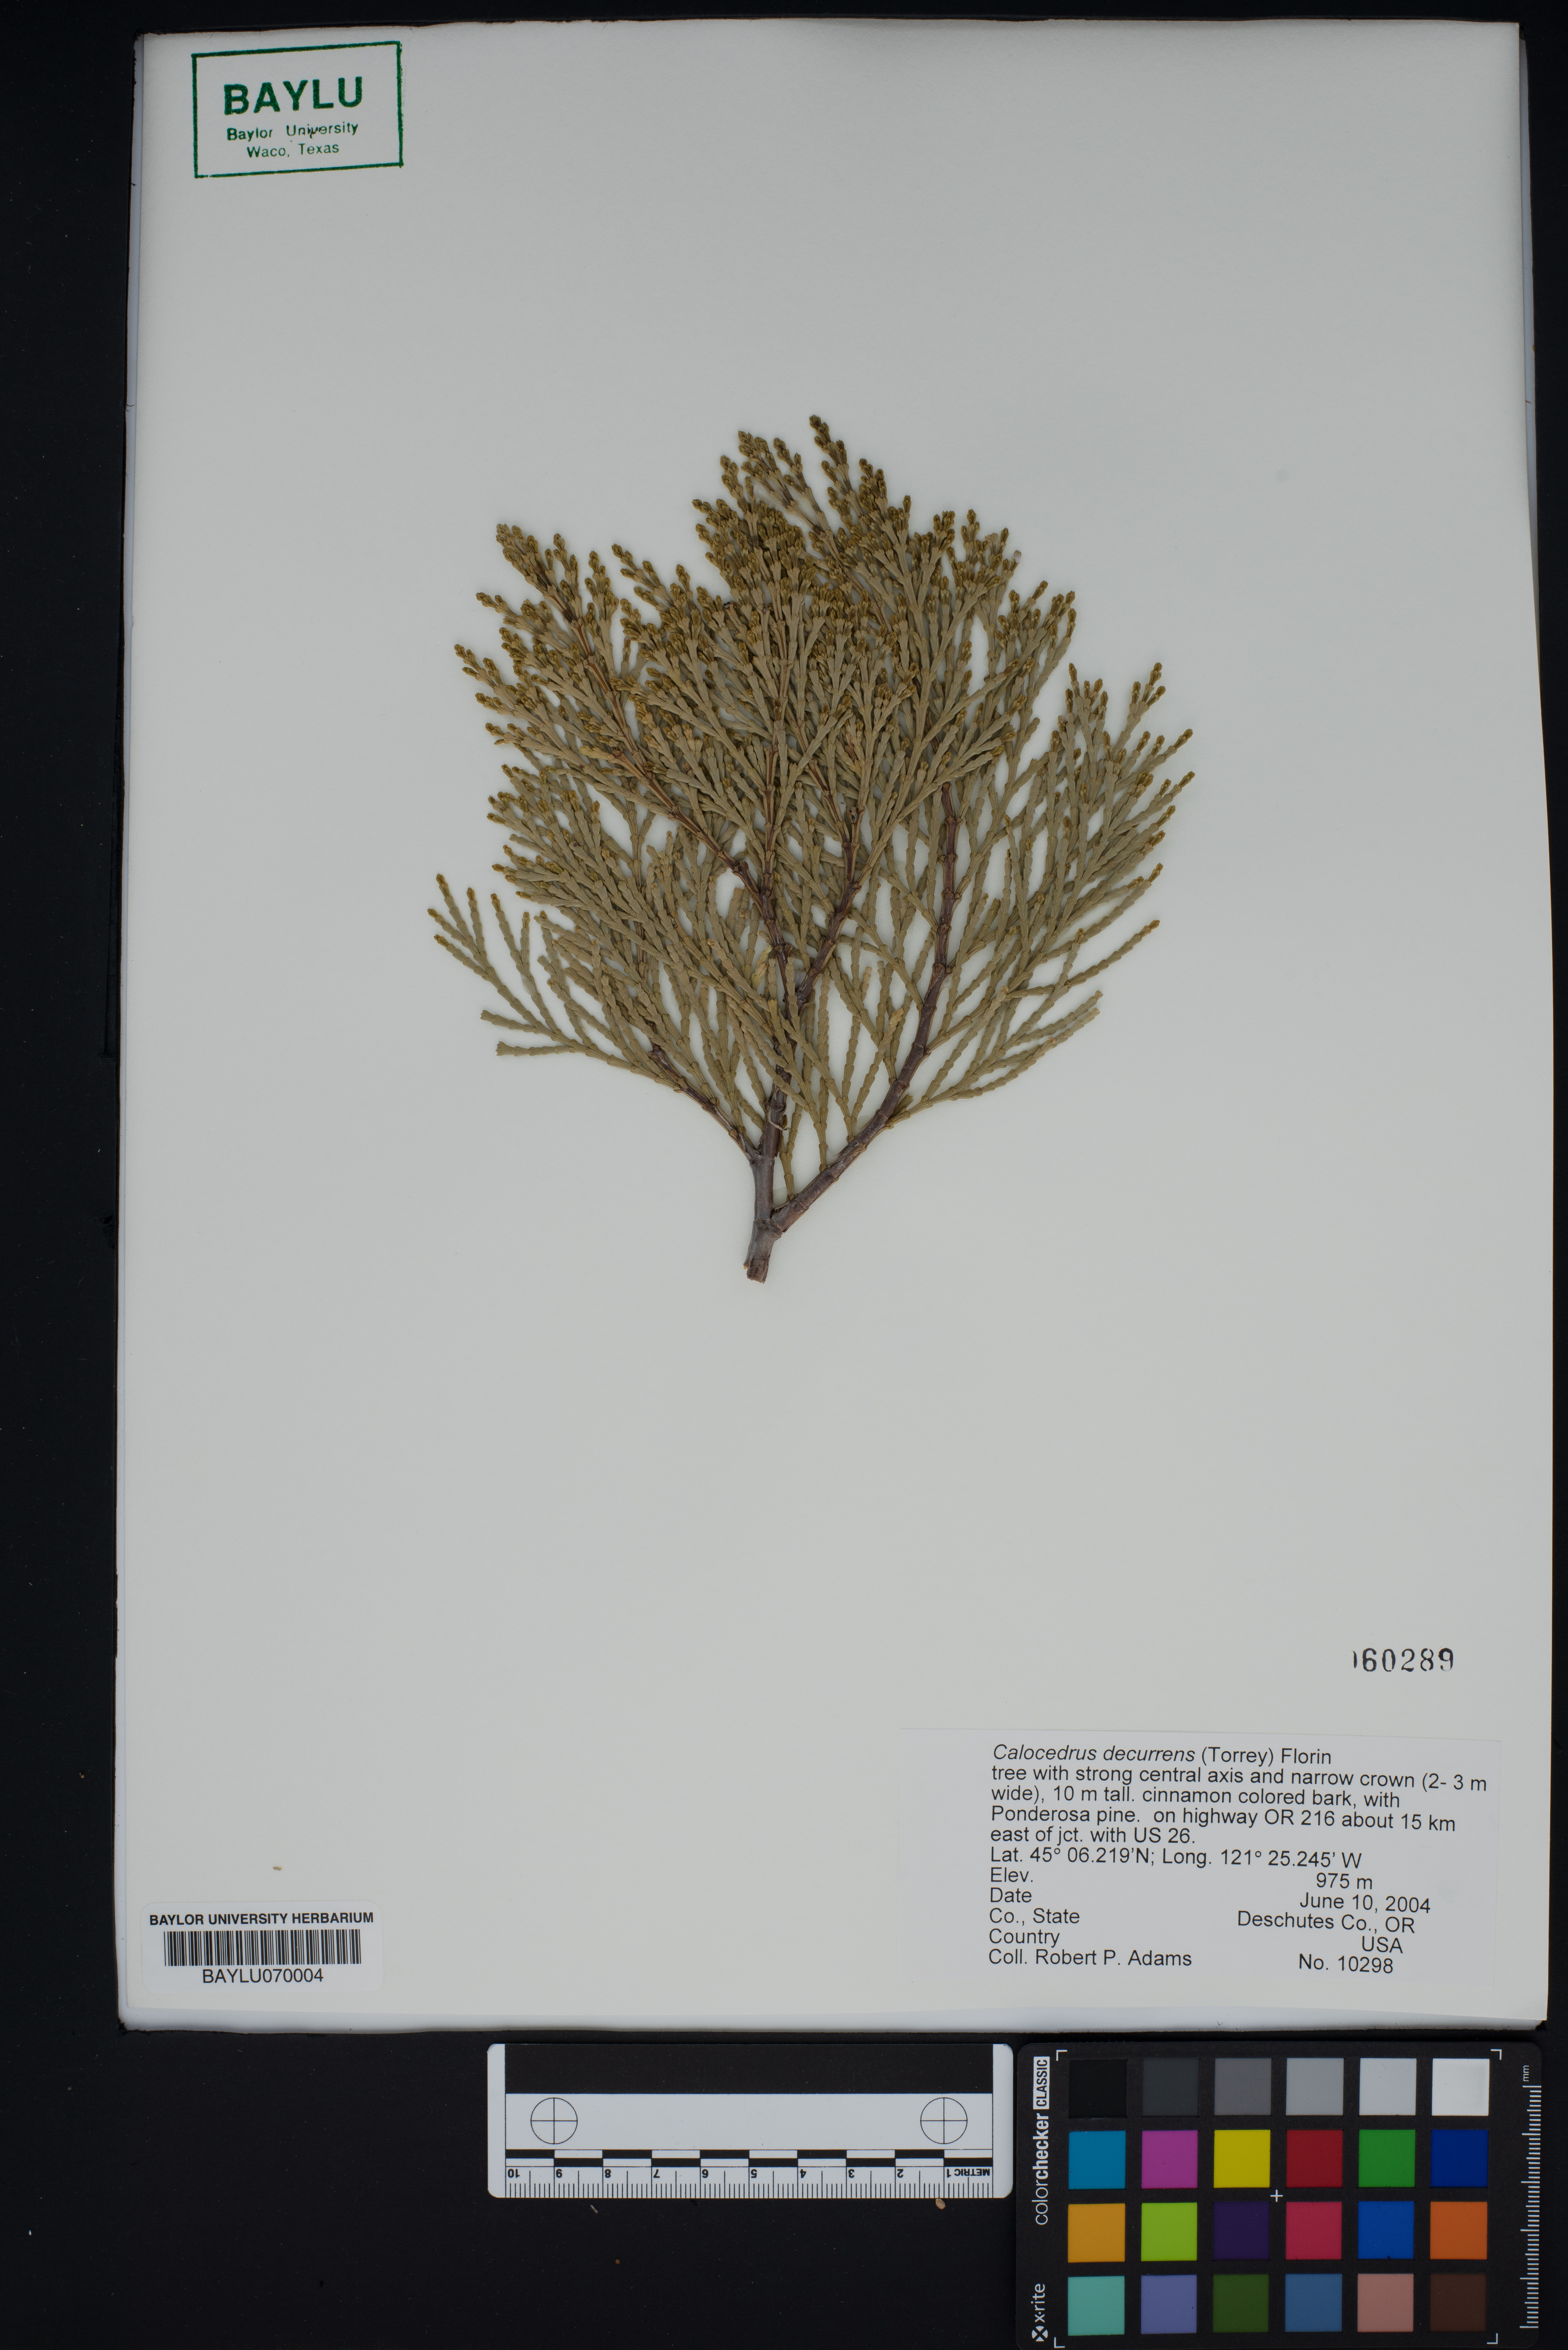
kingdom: Plantae
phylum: Tracheophyta
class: Pinopsida
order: Pinales
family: Cupressaceae
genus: Calocedrus
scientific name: Calocedrus decurrens
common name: Californian incense-cedar
